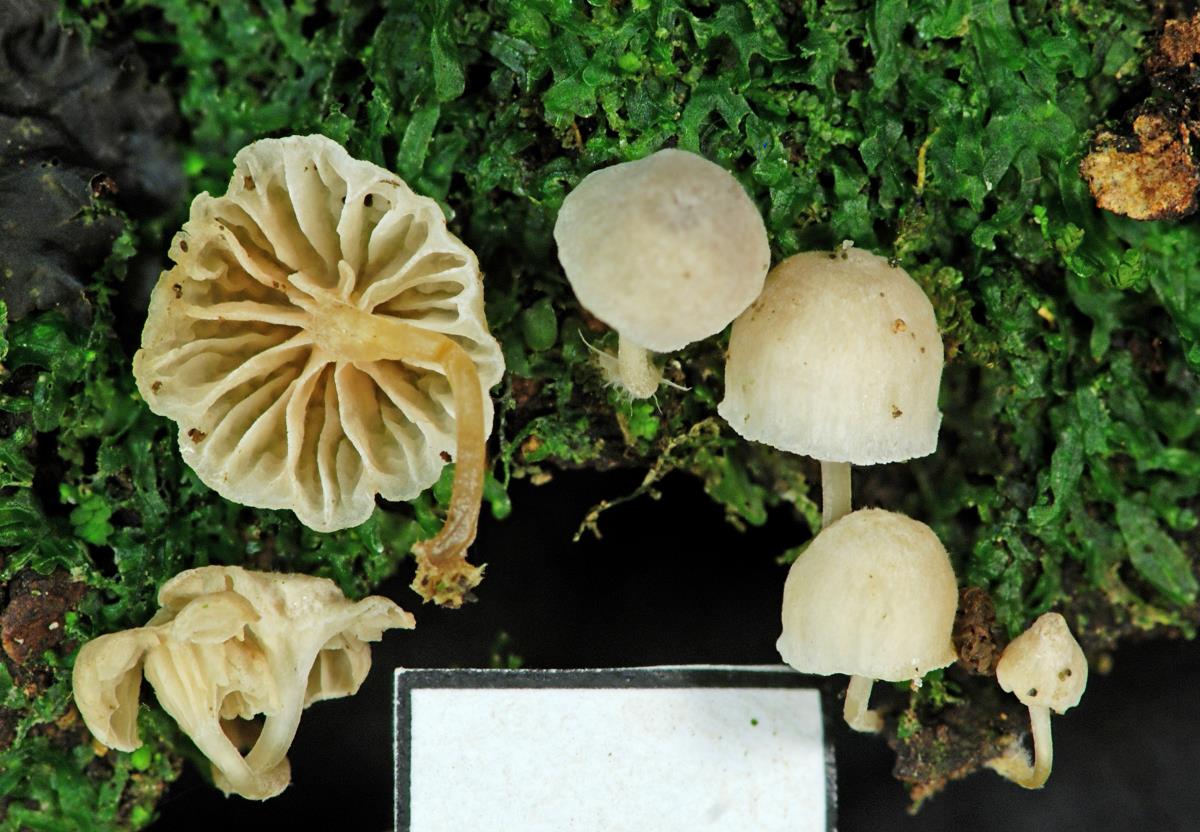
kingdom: Fungi
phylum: Basidiomycota
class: Agaricomycetes
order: Agaricales
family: Mycenaceae
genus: Mycena
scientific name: Mycena
